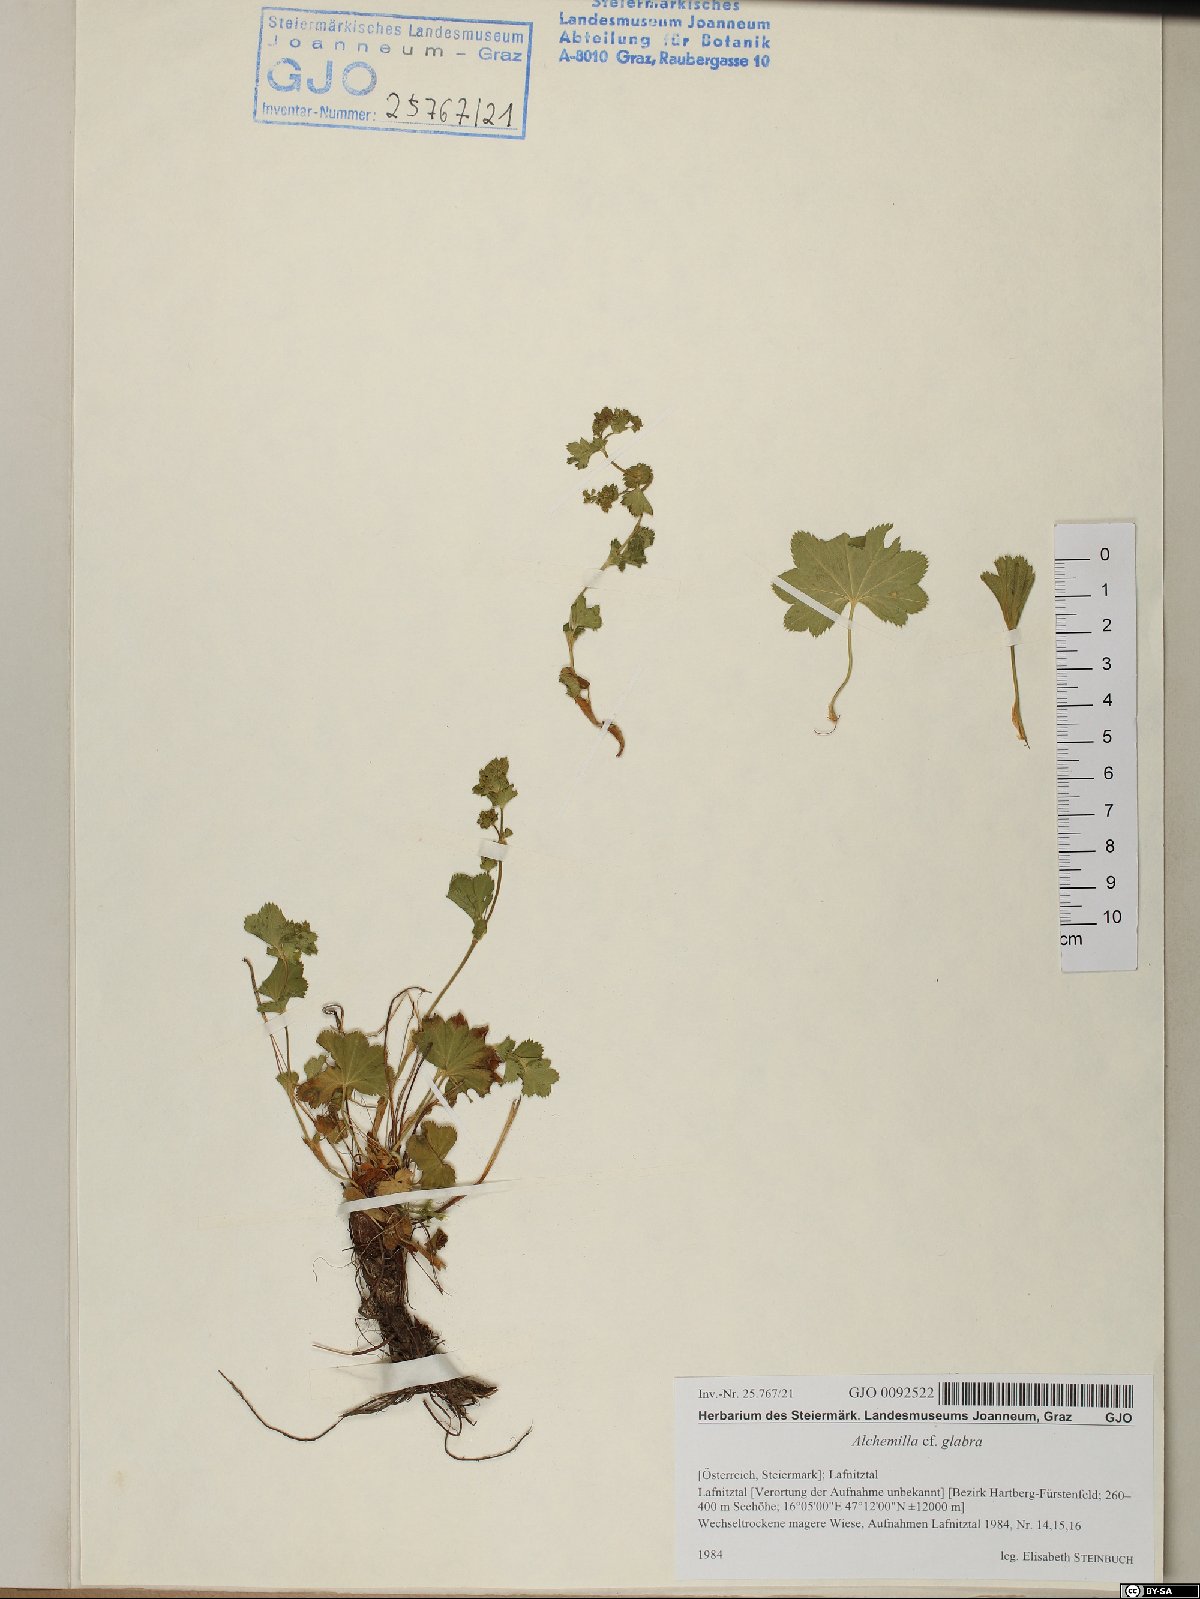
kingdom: Plantae
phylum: Tracheophyta
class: Magnoliopsida
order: Rosales
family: Rosaceae
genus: Alchemilla
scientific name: Alchemilla glabra
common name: Smooth lady's-mantle
